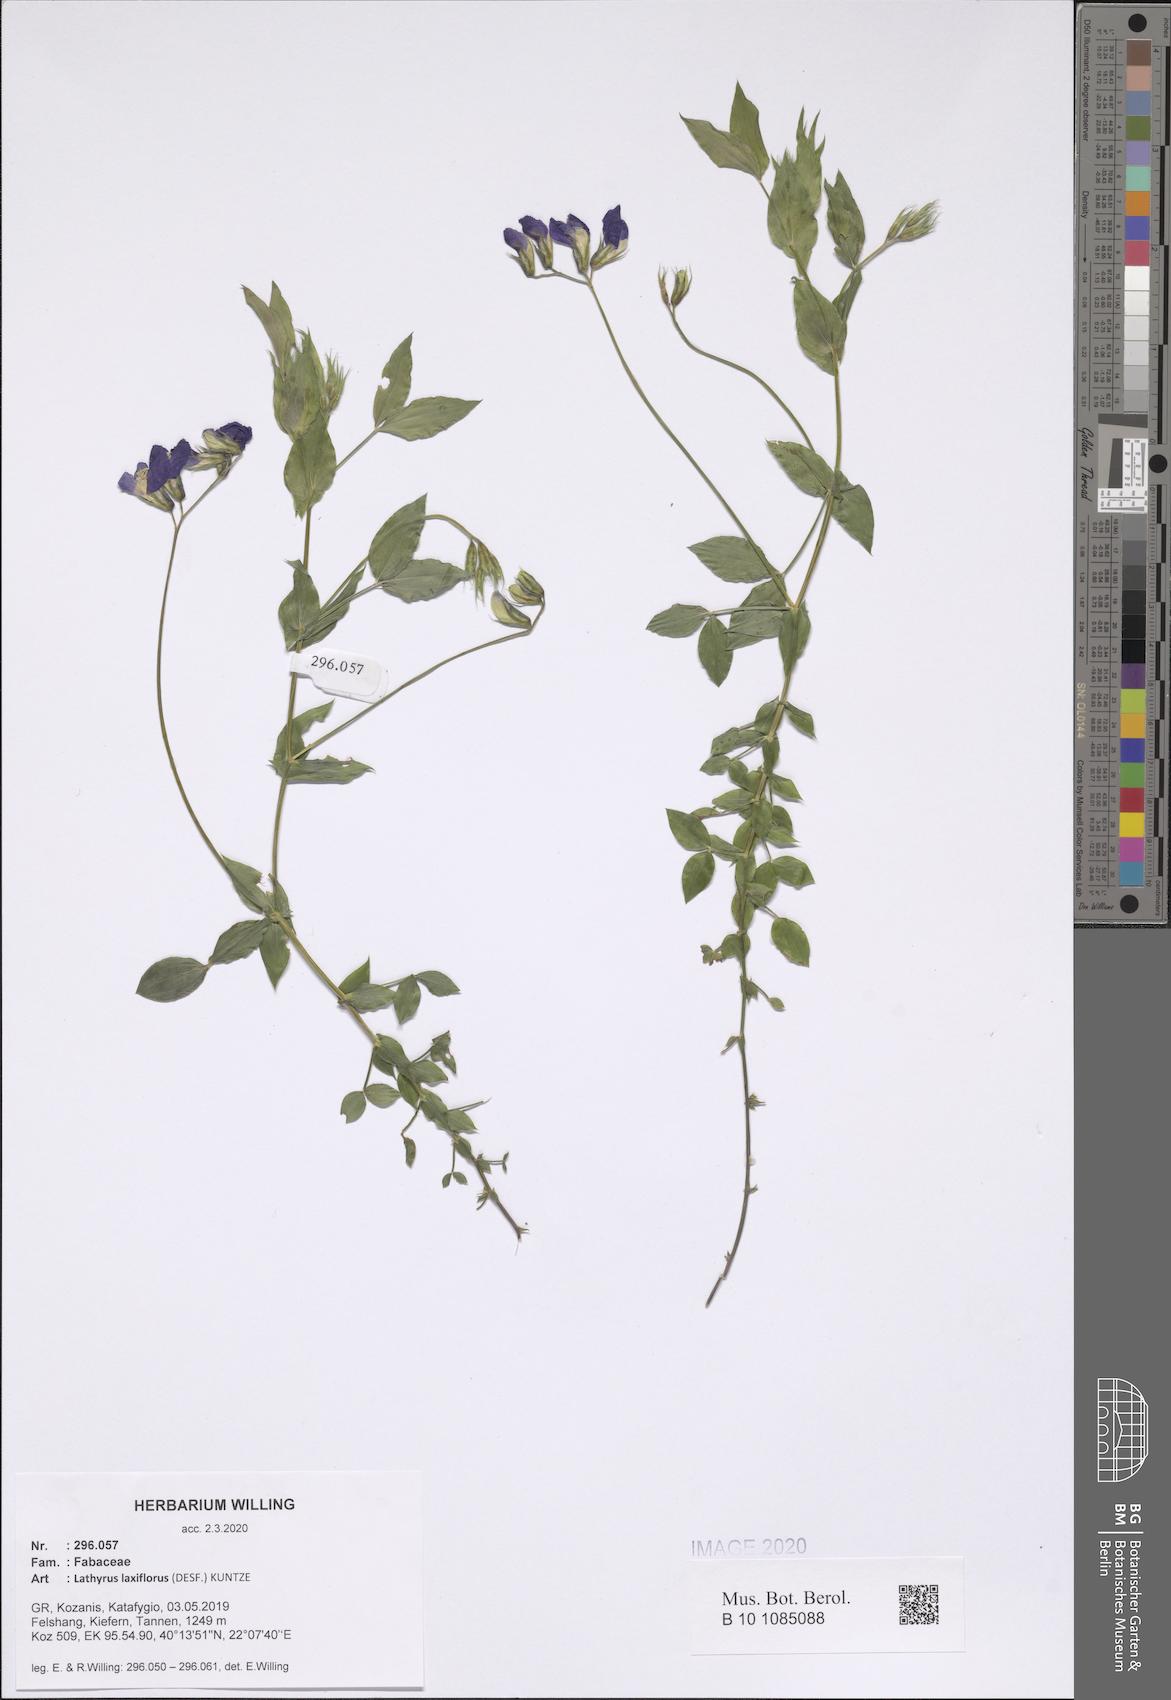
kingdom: Plantae
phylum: Tracheophyta
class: Magnoliopsida
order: Fabales
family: Fabaceae
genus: Lathyrus
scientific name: Lathyrus laxiflorus
